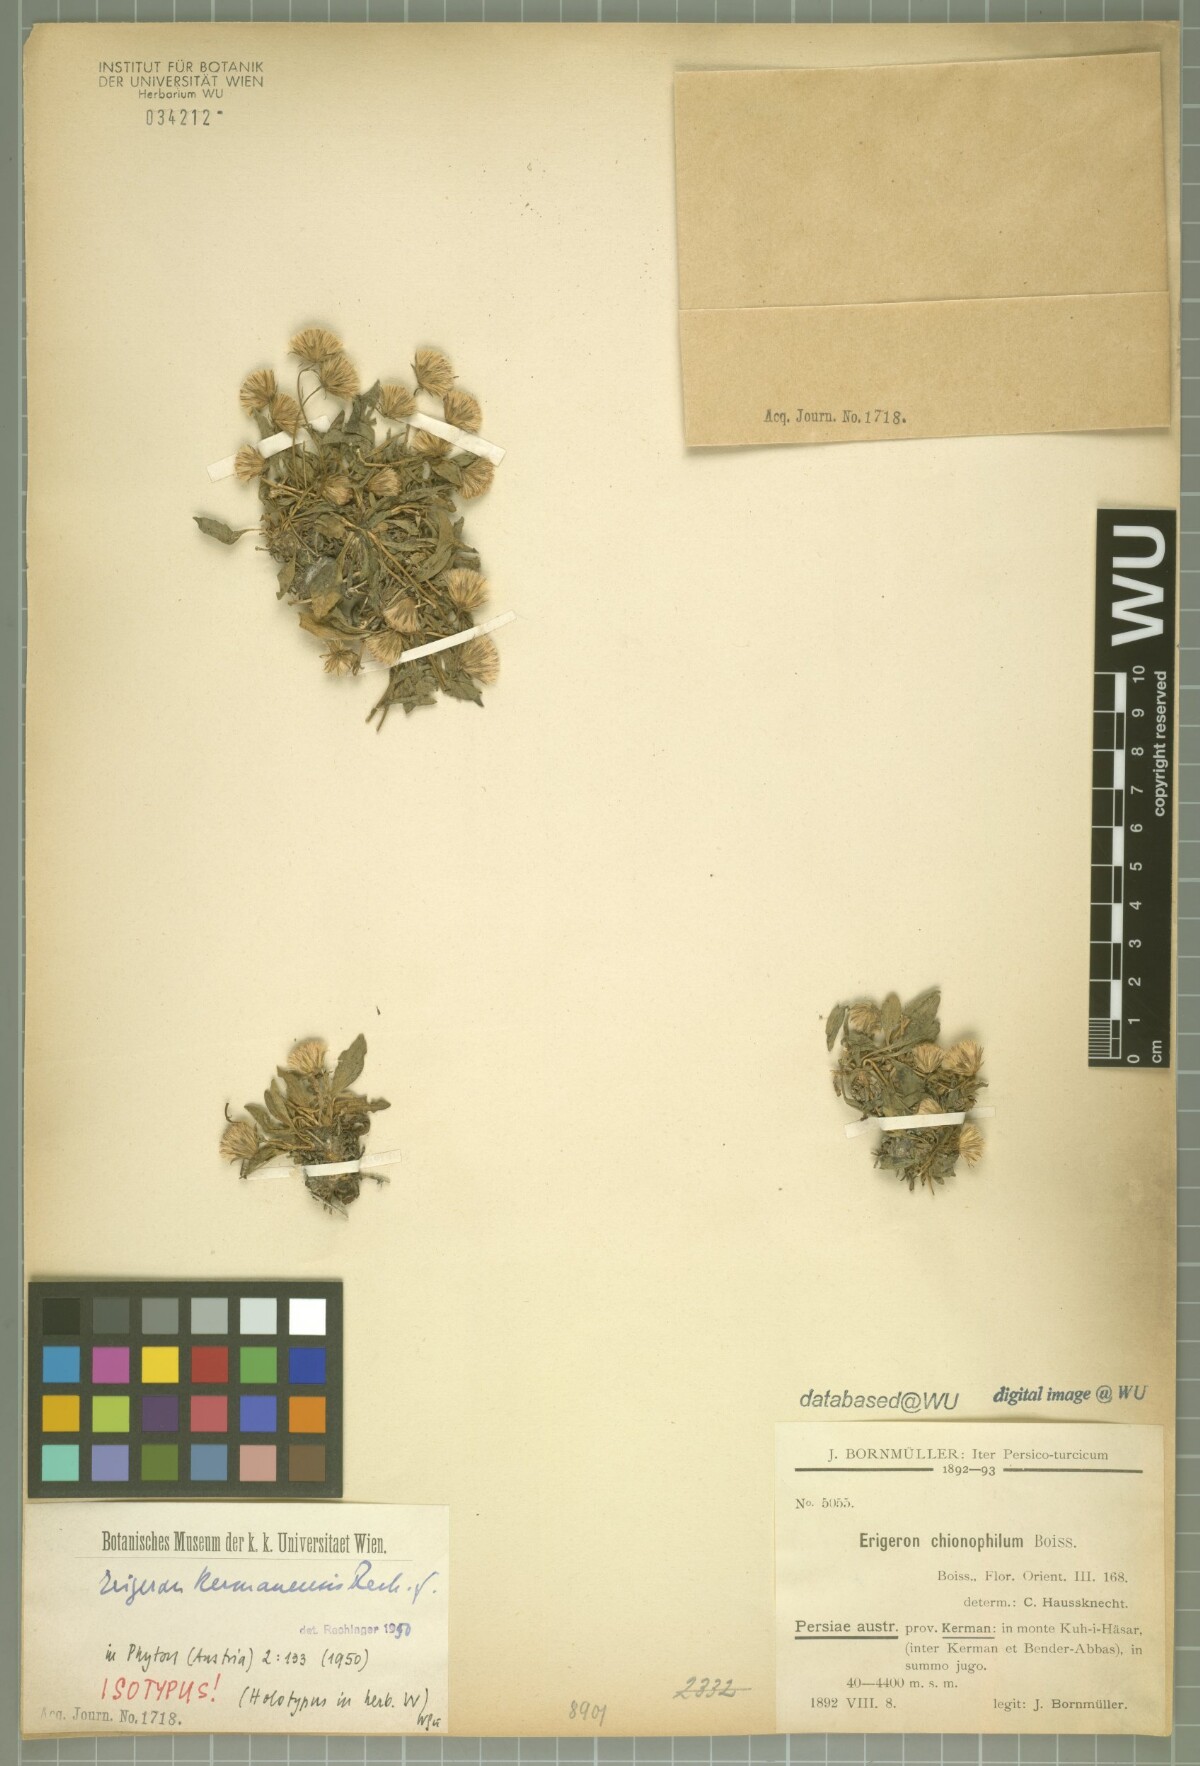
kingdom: Plantae
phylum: Tracheophyta
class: Magnoliopsida
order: Asterales
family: Asteraceae
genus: Psychrogeton
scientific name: Psychrogeton alexeenkoi
